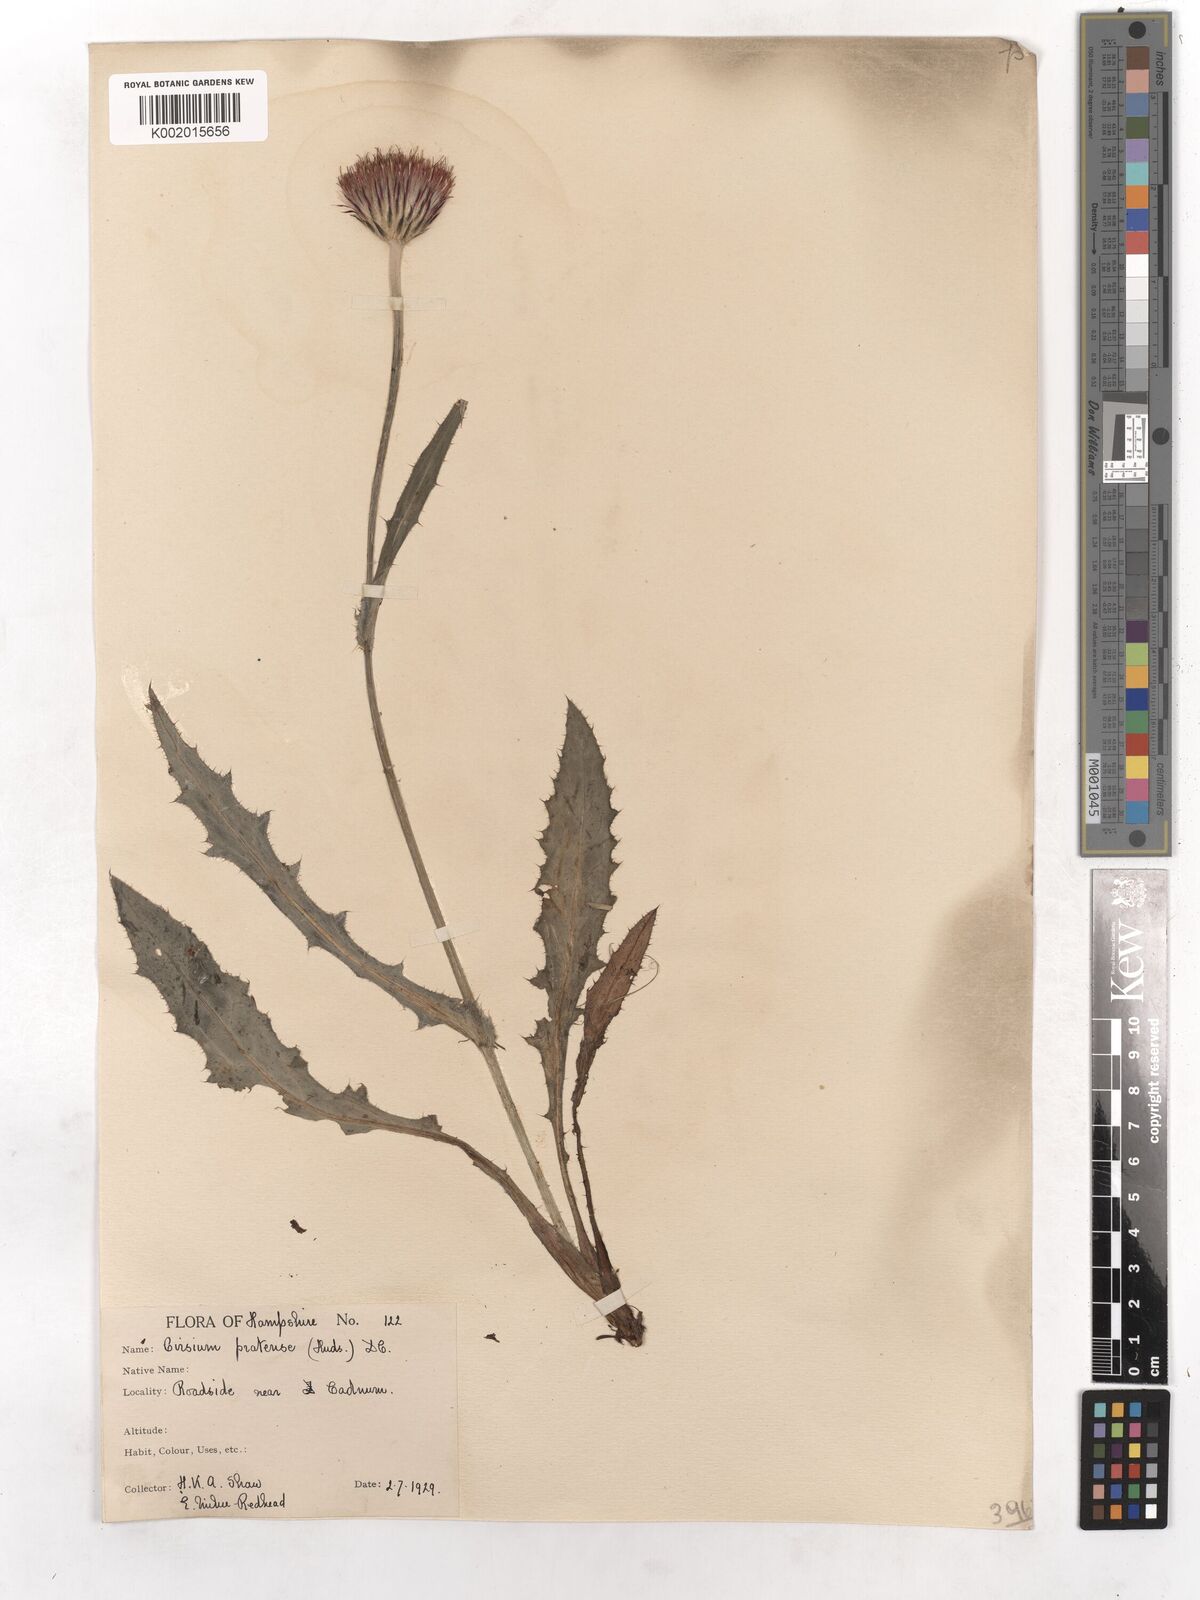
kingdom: Plantae
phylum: Tracheophyta
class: Magnoliopsida
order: Asterales
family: Asteraceae
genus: Cirsium
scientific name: Cirsium dissectum
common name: Meadow thistle
